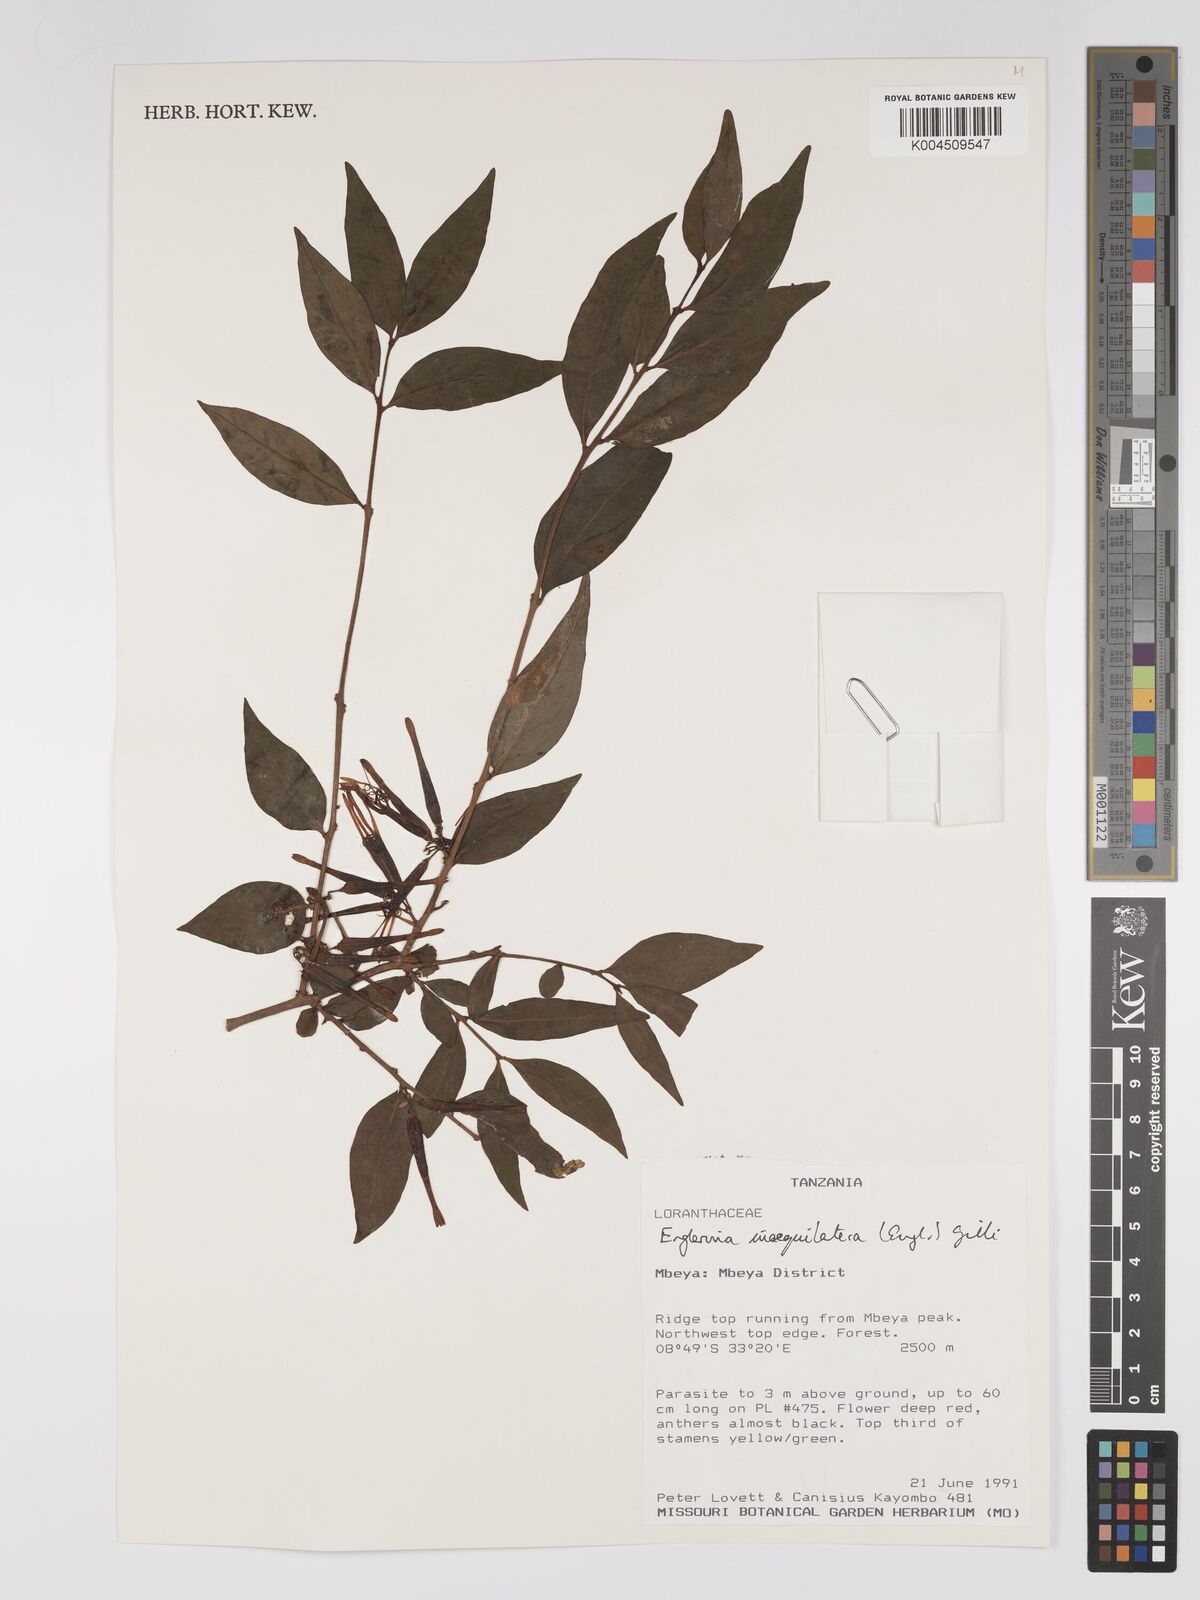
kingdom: Plantae
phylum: Tracheophyta
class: Magnoliopsida
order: Santalales
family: Loranthaceae
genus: Englerina
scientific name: Englerina inaequilatera
